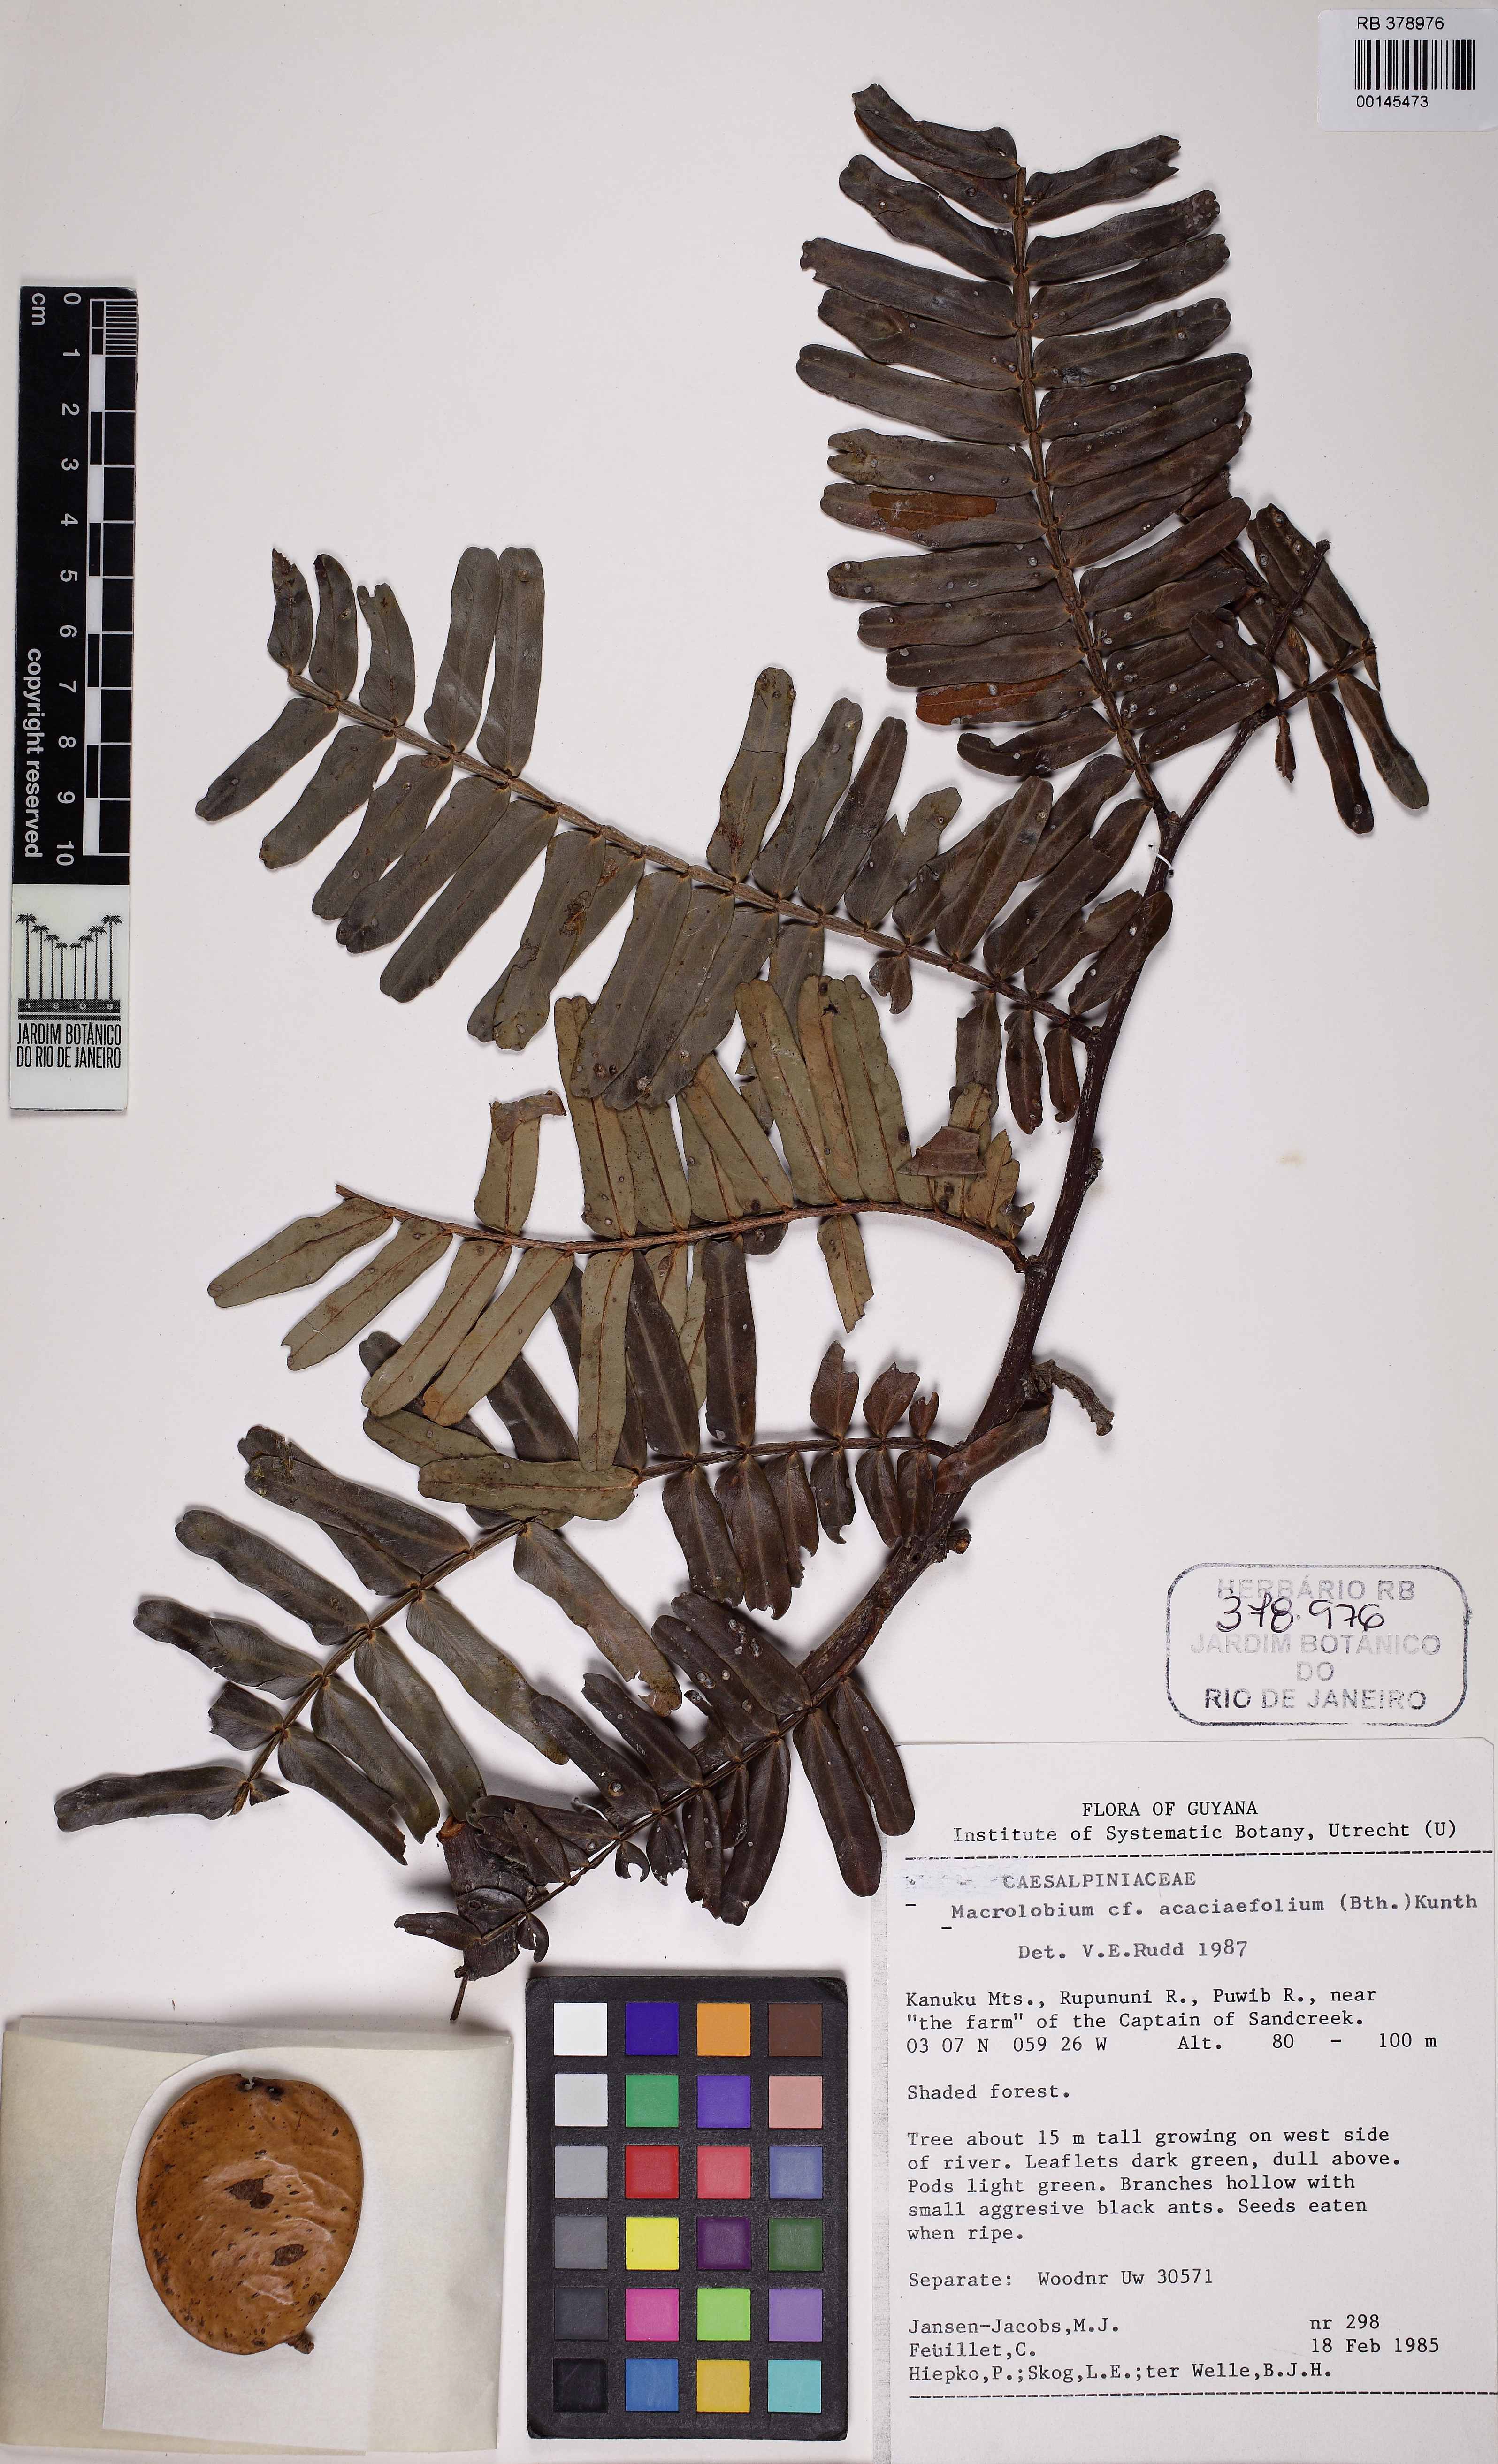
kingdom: Plantae
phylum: Tracheophyta
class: Magnoliopsida
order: Fabales
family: Fabaceae
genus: Macrolobium
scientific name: Macrolobium acaciifolium
